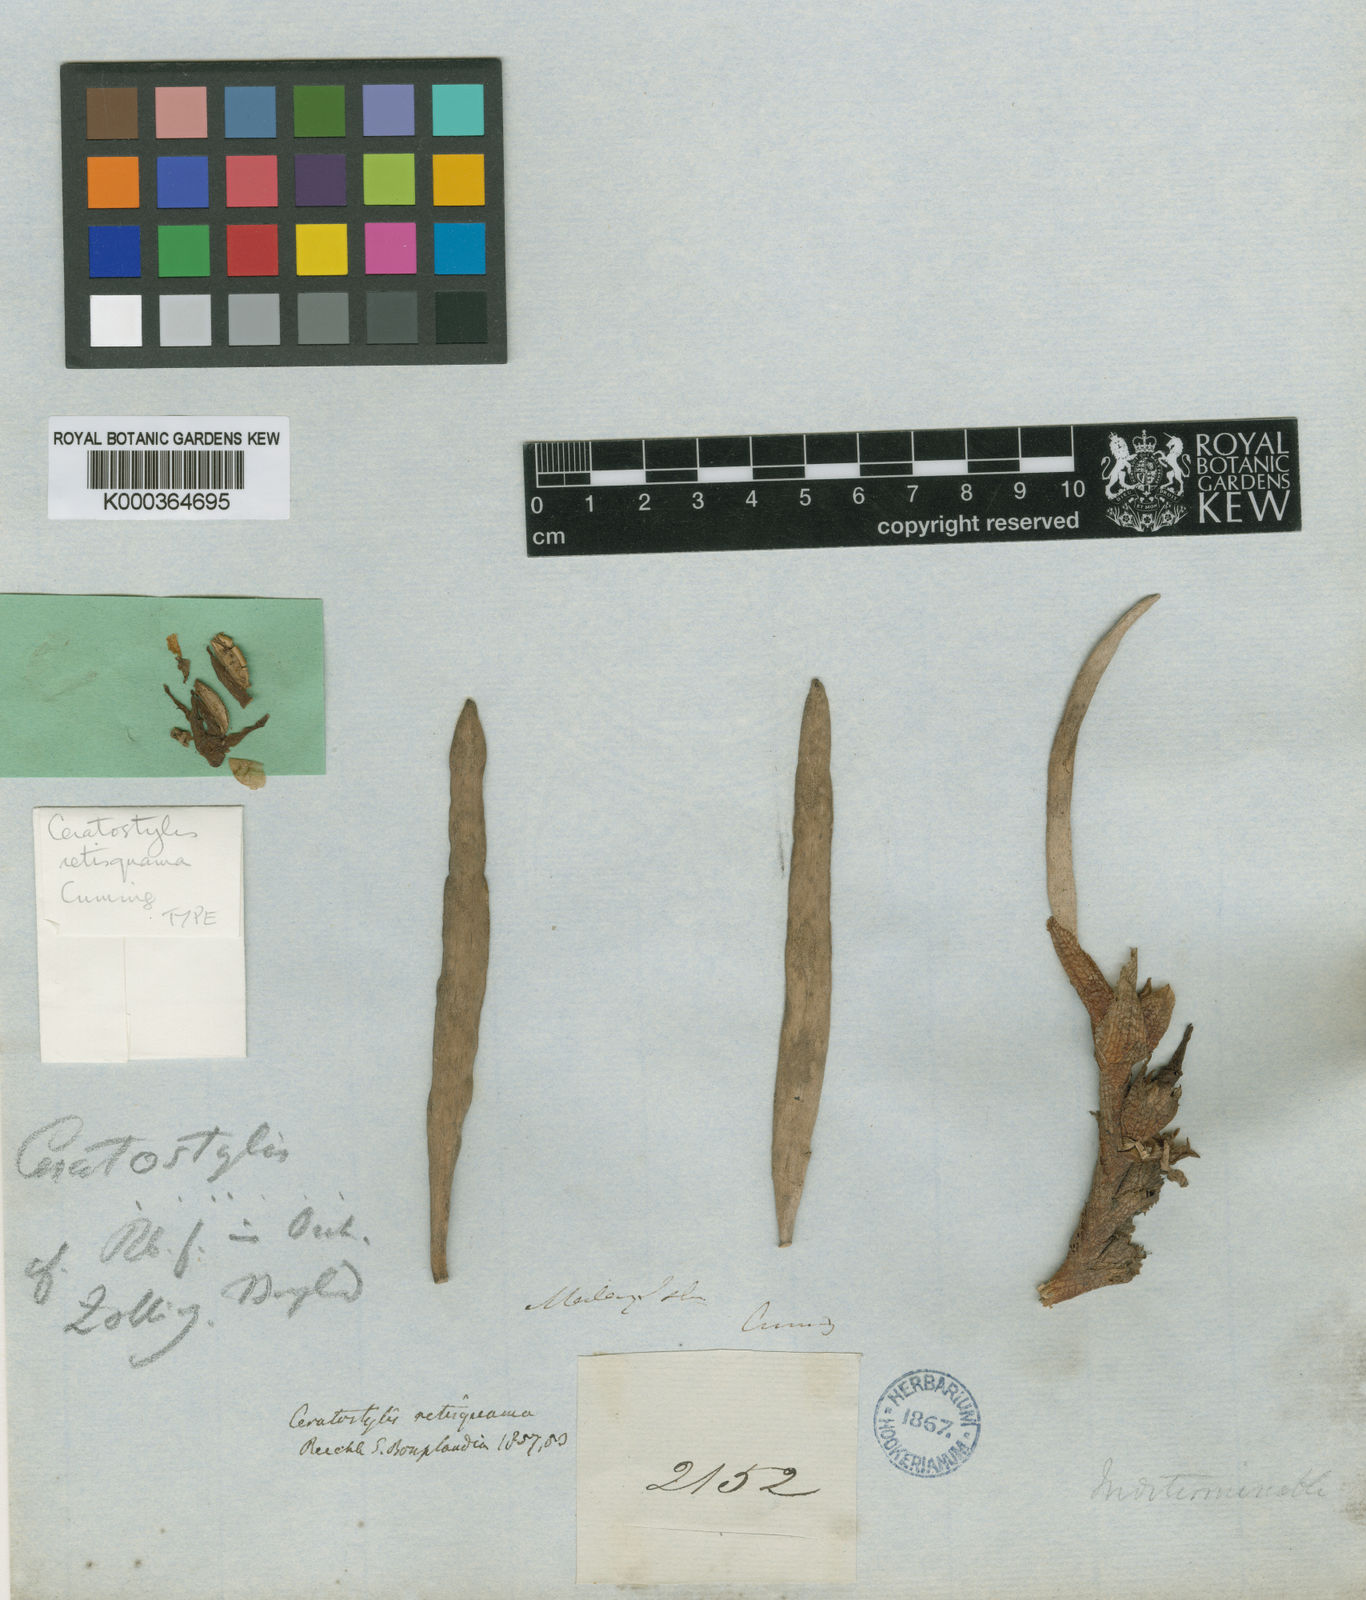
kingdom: Plantae
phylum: Tracheophyta
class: Liliopsida
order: Asparagales
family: Orchidaceae
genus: Ceratostylis
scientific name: Ceratostylis retisquama
